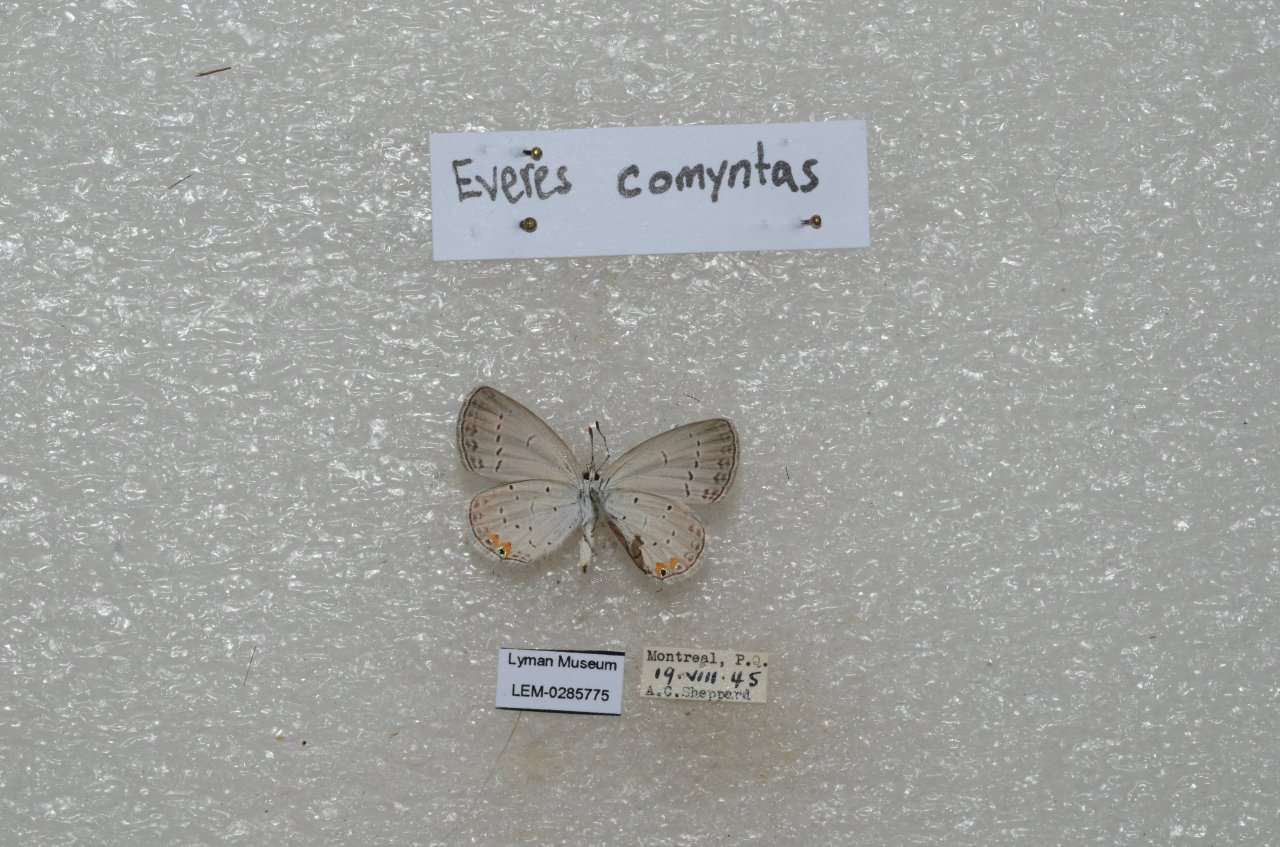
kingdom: Animalia
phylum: Arthropoda
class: Insecta
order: Lepidoptera
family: Lycaenidae
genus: Elkalyce
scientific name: Elkalyce comyntas
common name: Eastern Tailed-Blue
